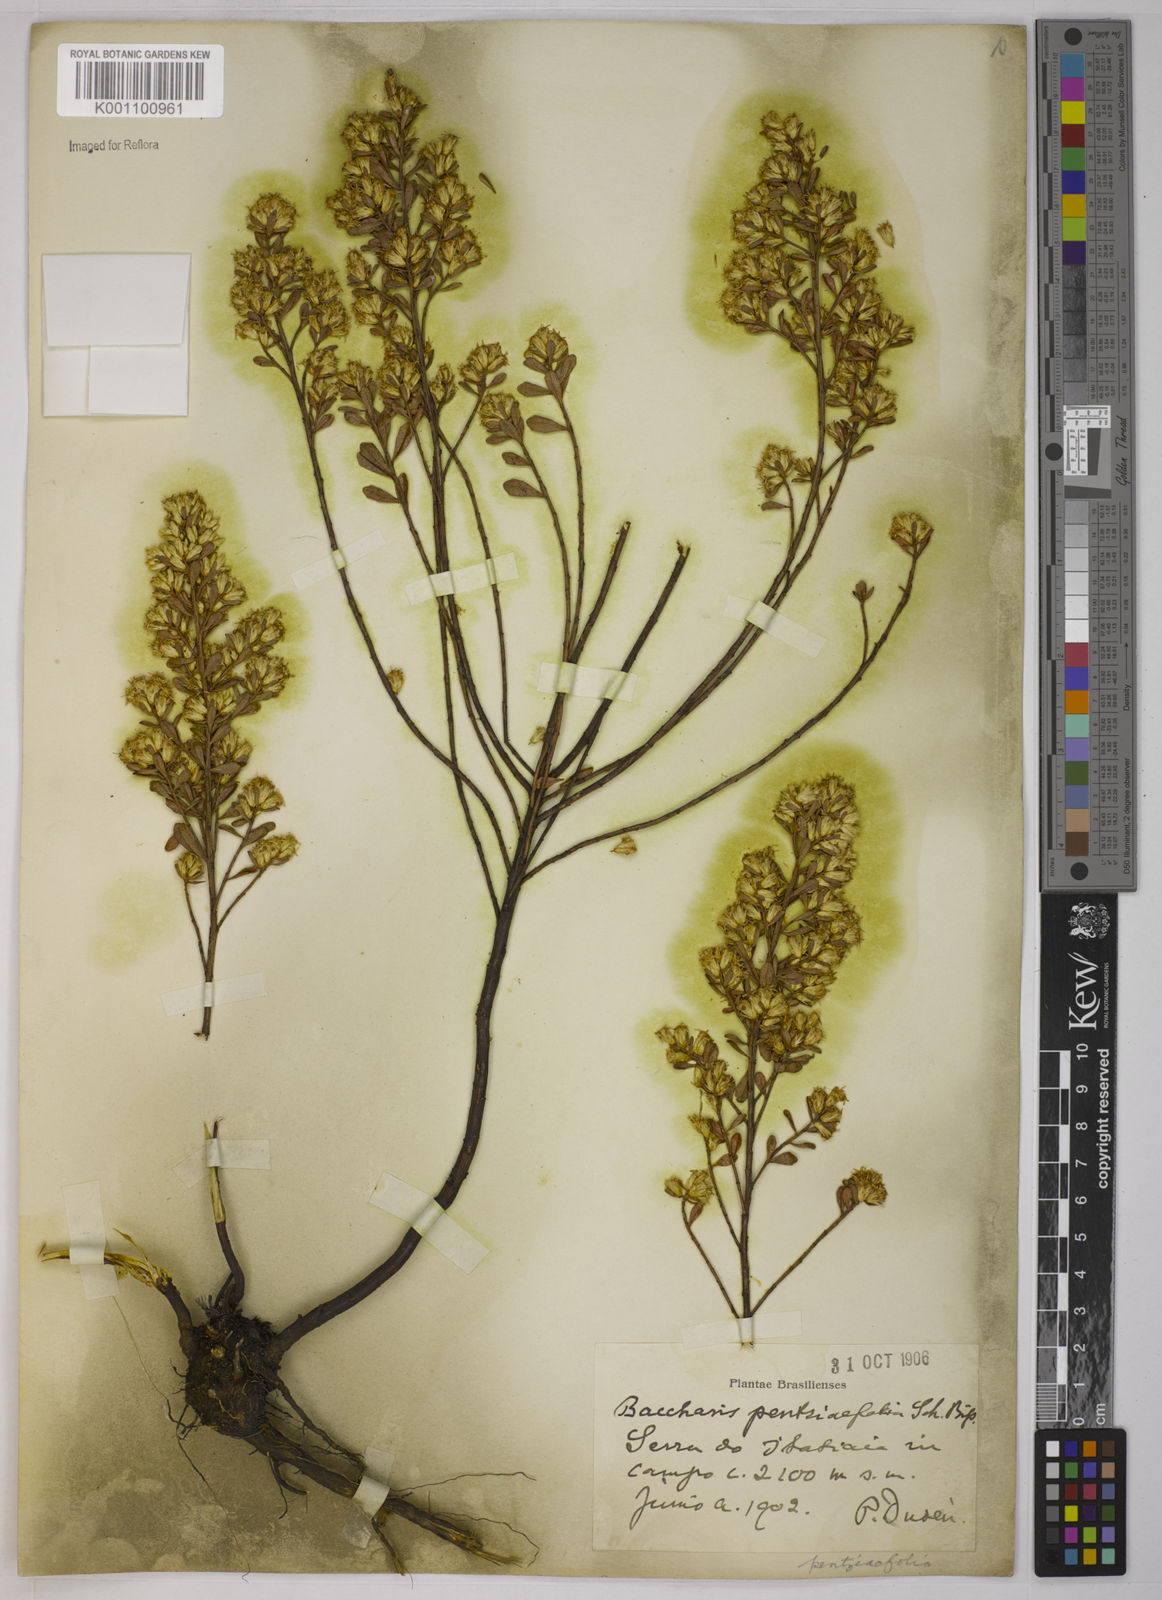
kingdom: Plantae
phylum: Tracheophyta
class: Magnoliopsida
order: Asterales
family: Asteraceae
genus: Baccharis
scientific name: Baccharis pentziifolia
